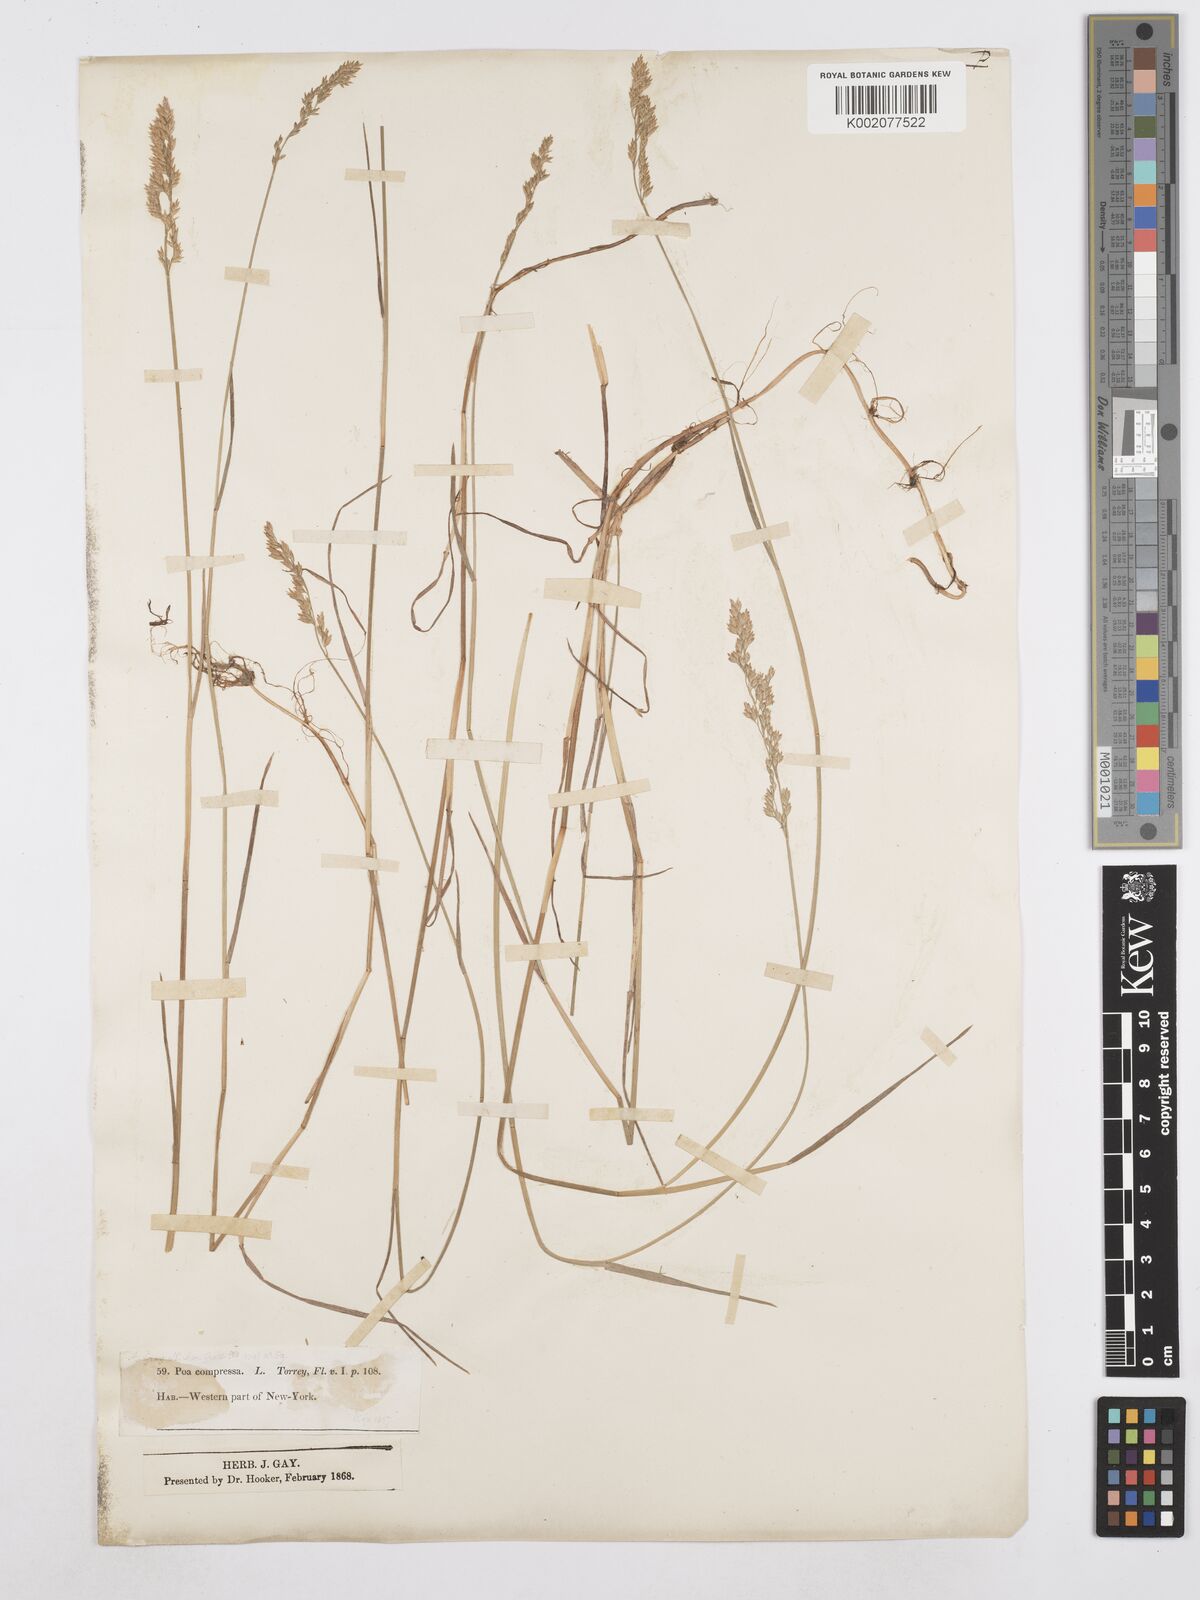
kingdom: Plantae
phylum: Tracheophyta
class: Liliopsida
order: Poales
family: Poaceae
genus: Poa
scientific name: Poa compressa
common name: Canada bluegrass
